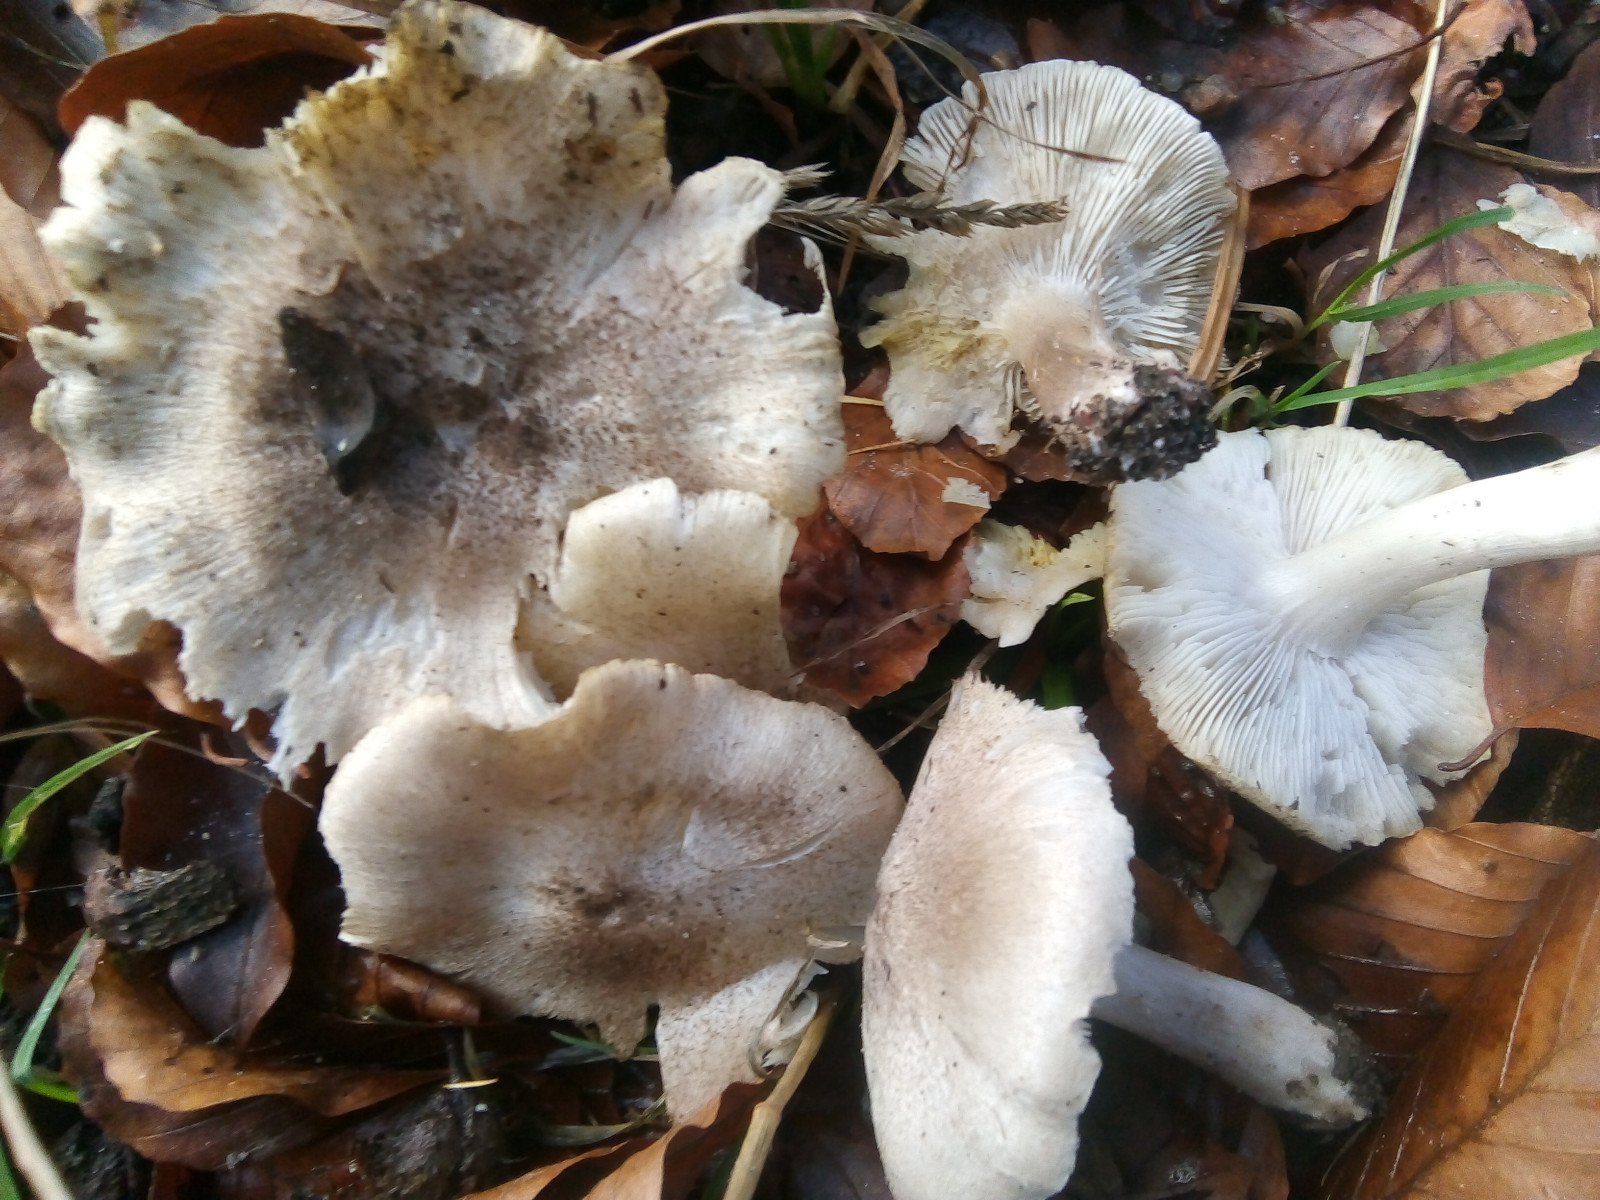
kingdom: Fungi
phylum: Basidiomycota
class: Agaricomycetes
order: Agaricales
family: Tricholomataceae
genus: Tricholoma
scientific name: Tricholoma scalpturatum
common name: gulplettet ridderhat
